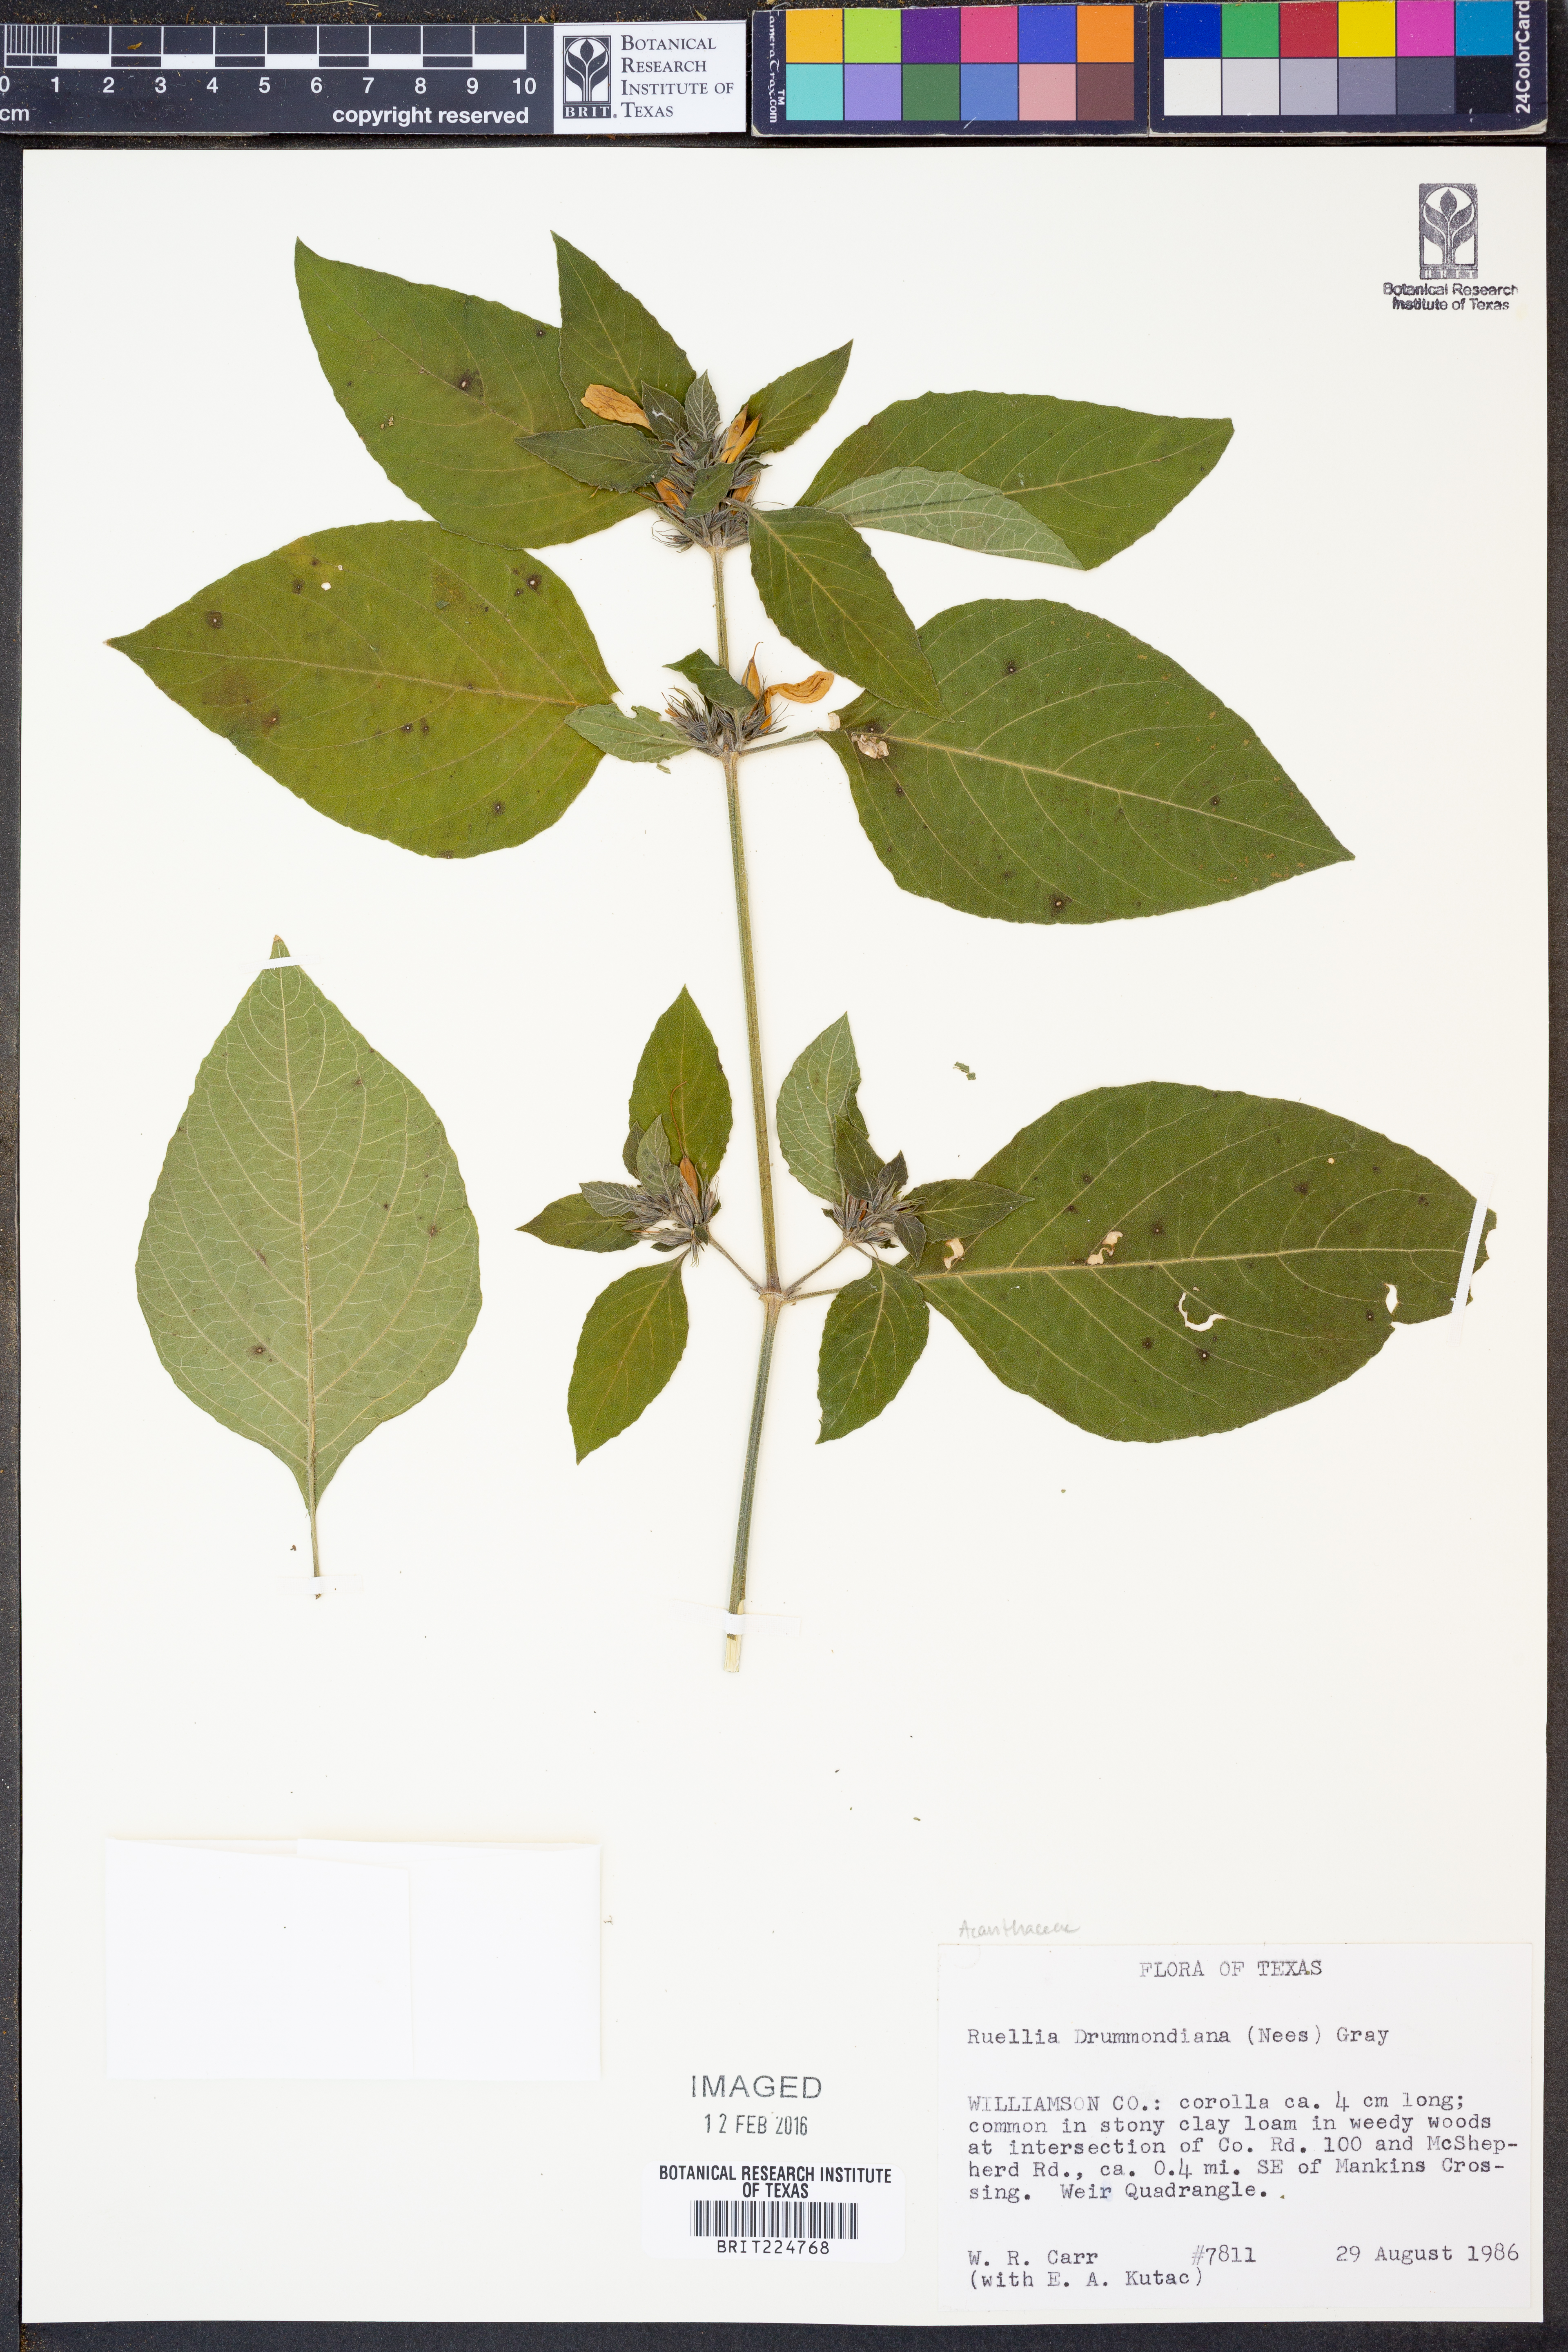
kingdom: Plantae
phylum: Tracheophyta
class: Magnoliopsida
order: Lamiales
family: Acanthaceae
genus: Ruellia
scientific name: Ruellia drummondiana
